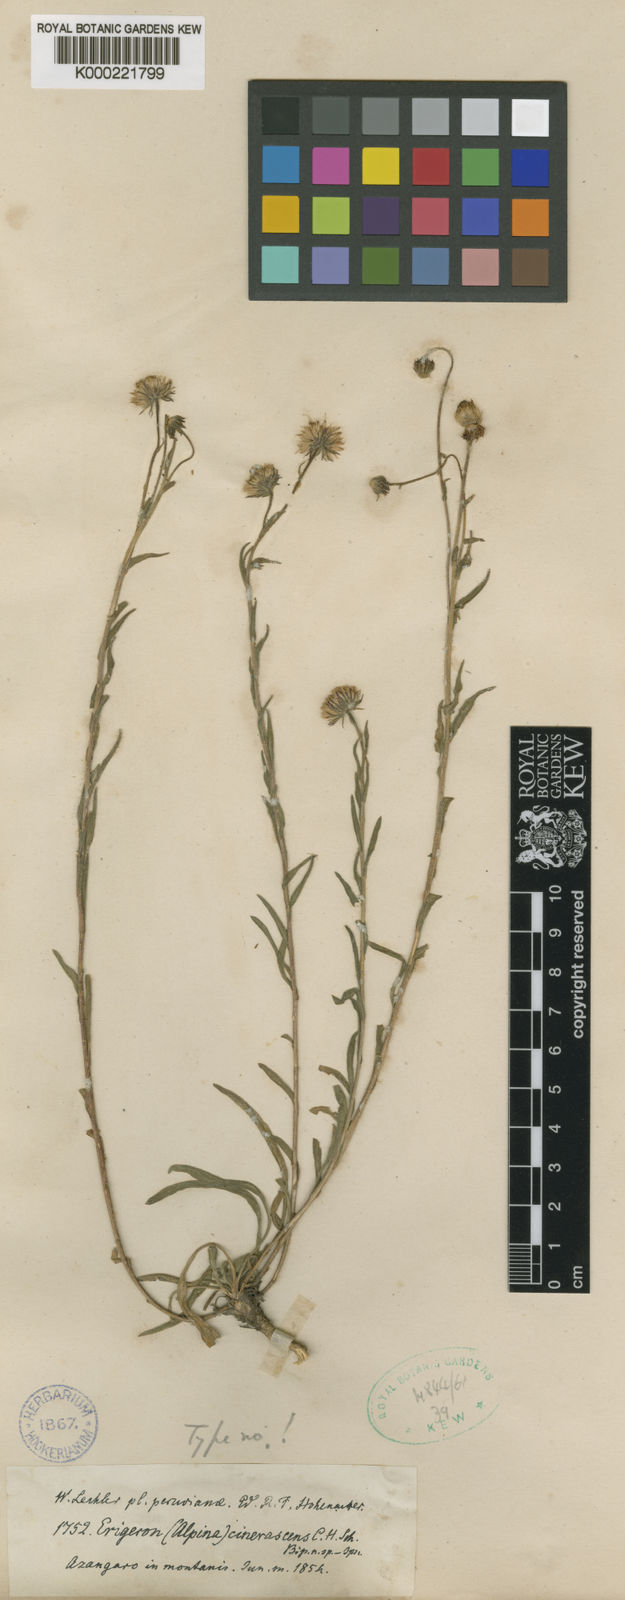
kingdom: Plantae
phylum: Tracheophyta
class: Magnoliopsida
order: Asterales
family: Asteraceae
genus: Erigeron
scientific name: Erigeron deserticolus
